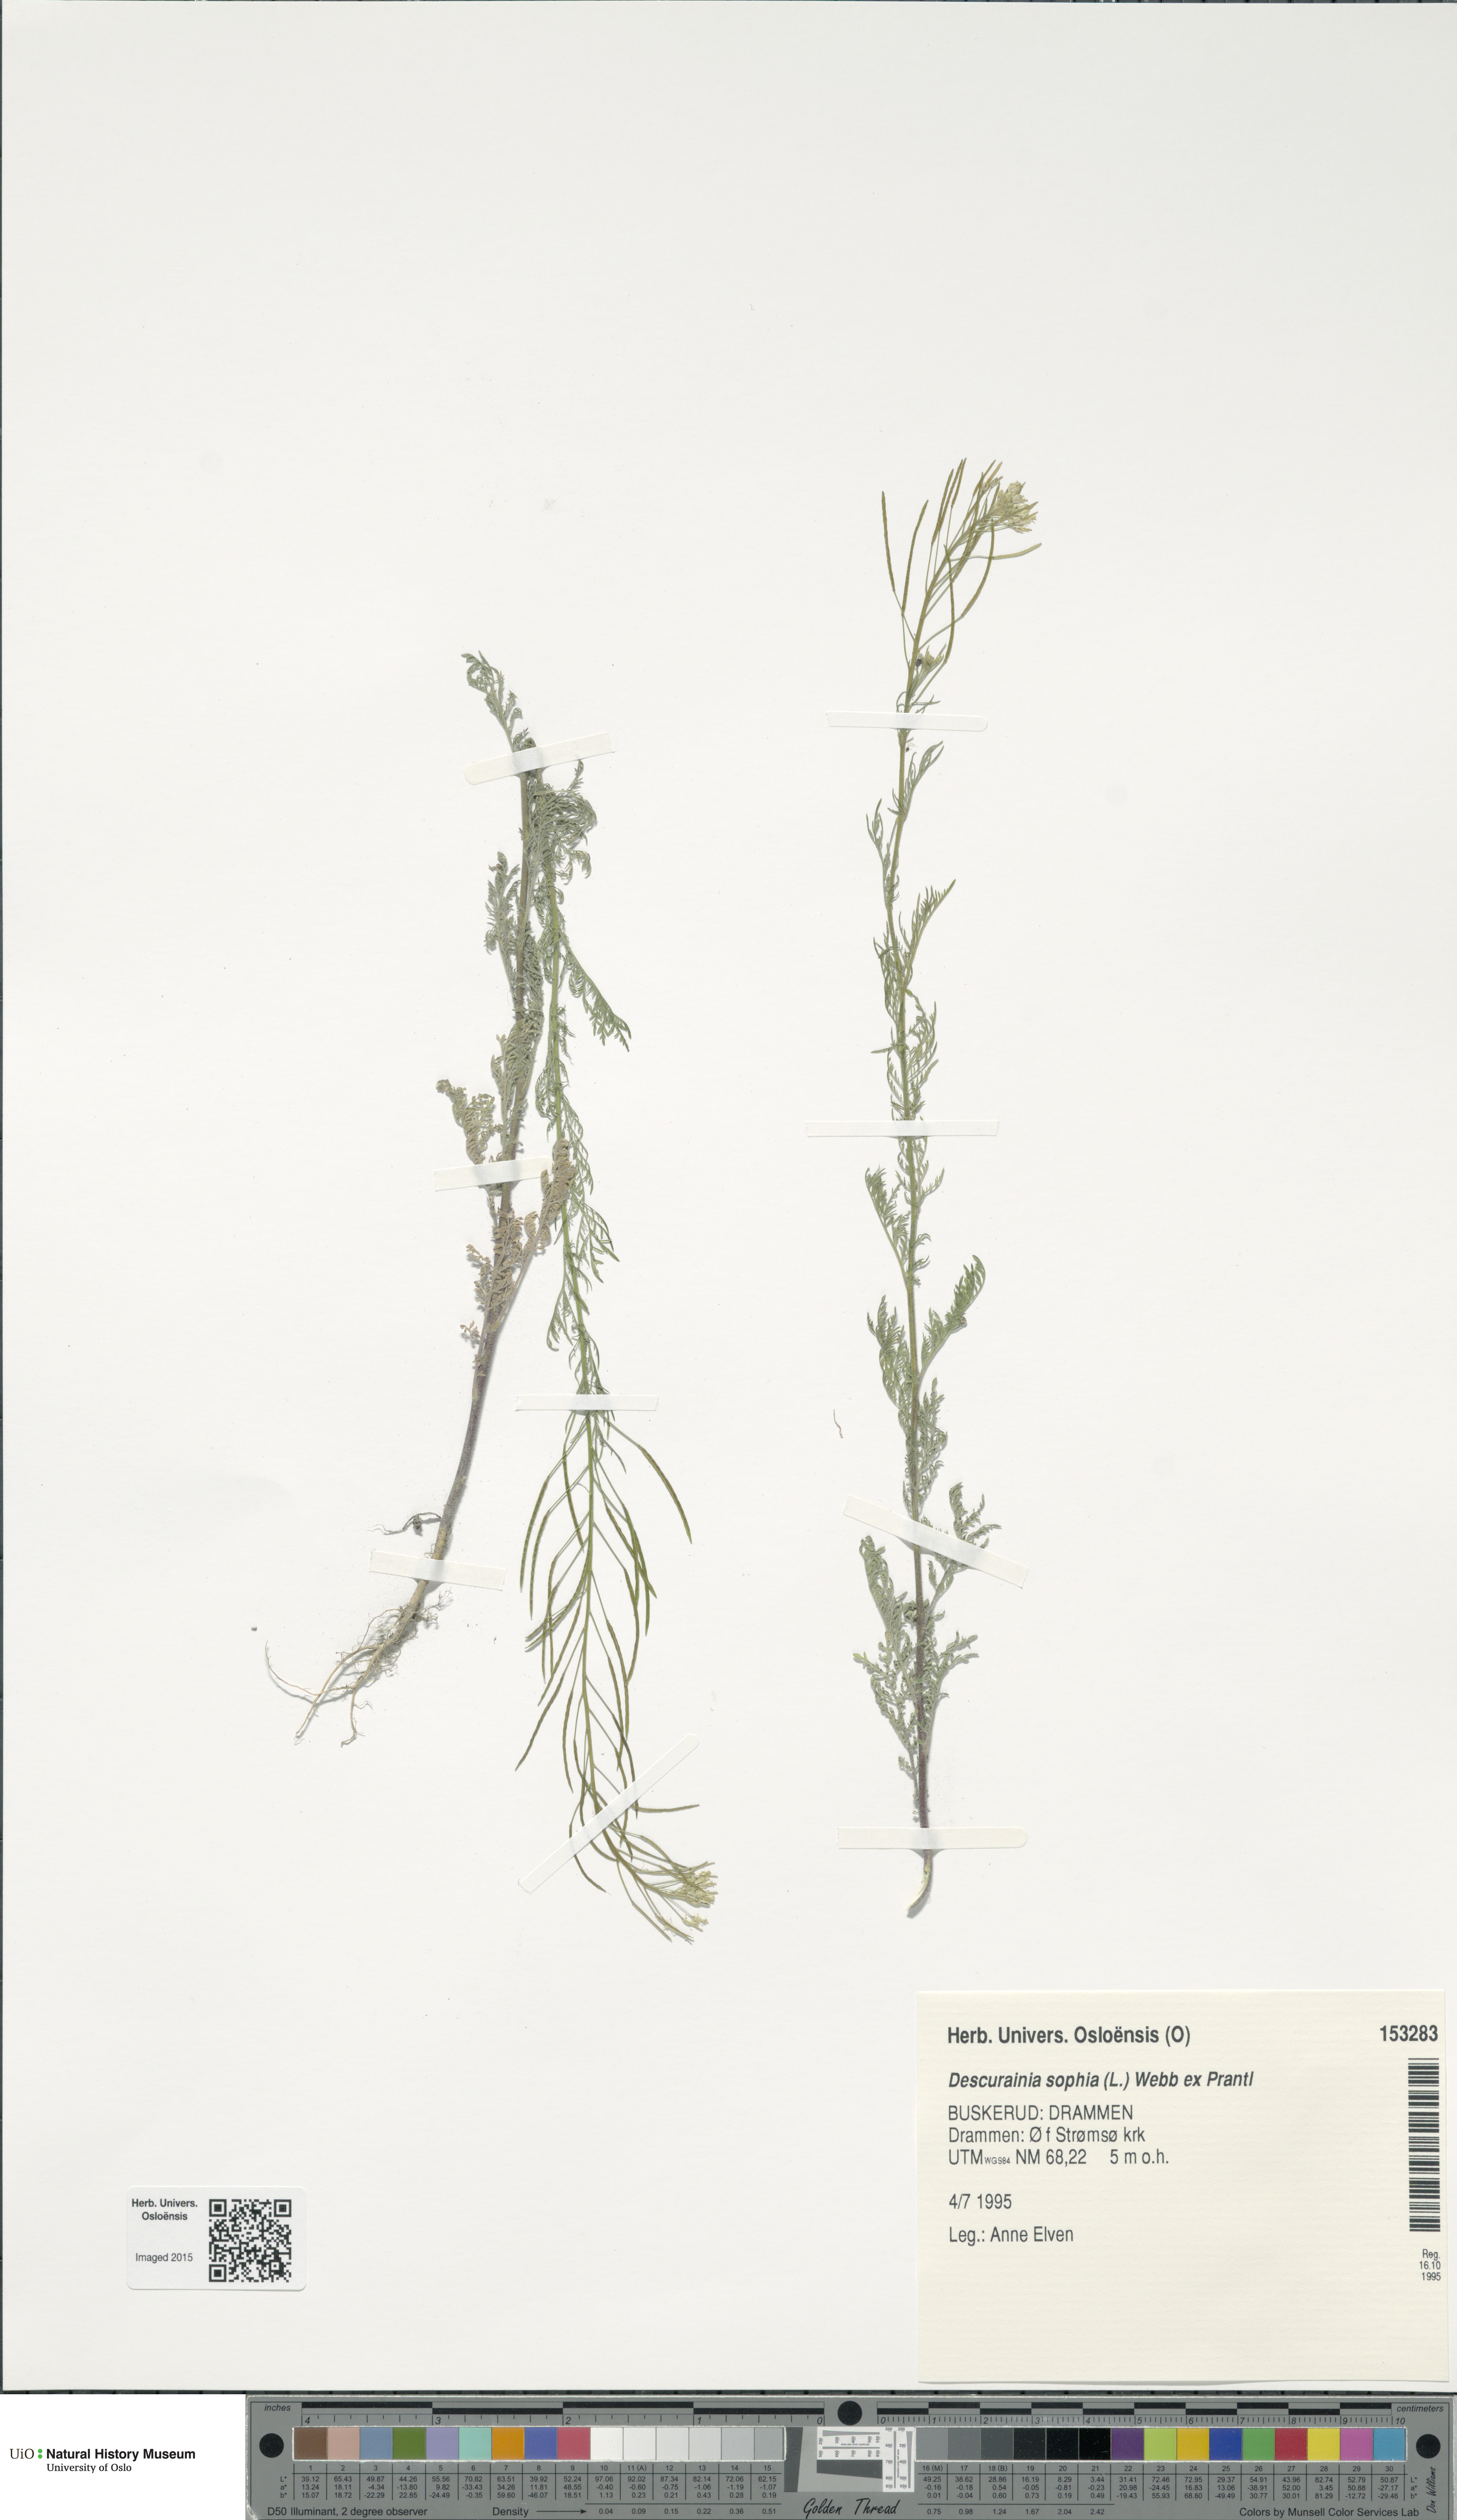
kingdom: Plantae
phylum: Tracheophyta
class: Magnoliopsida
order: Brassicales
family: Brassicaceae
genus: Descurainia
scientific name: Descurainia sophia
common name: Flixweed
